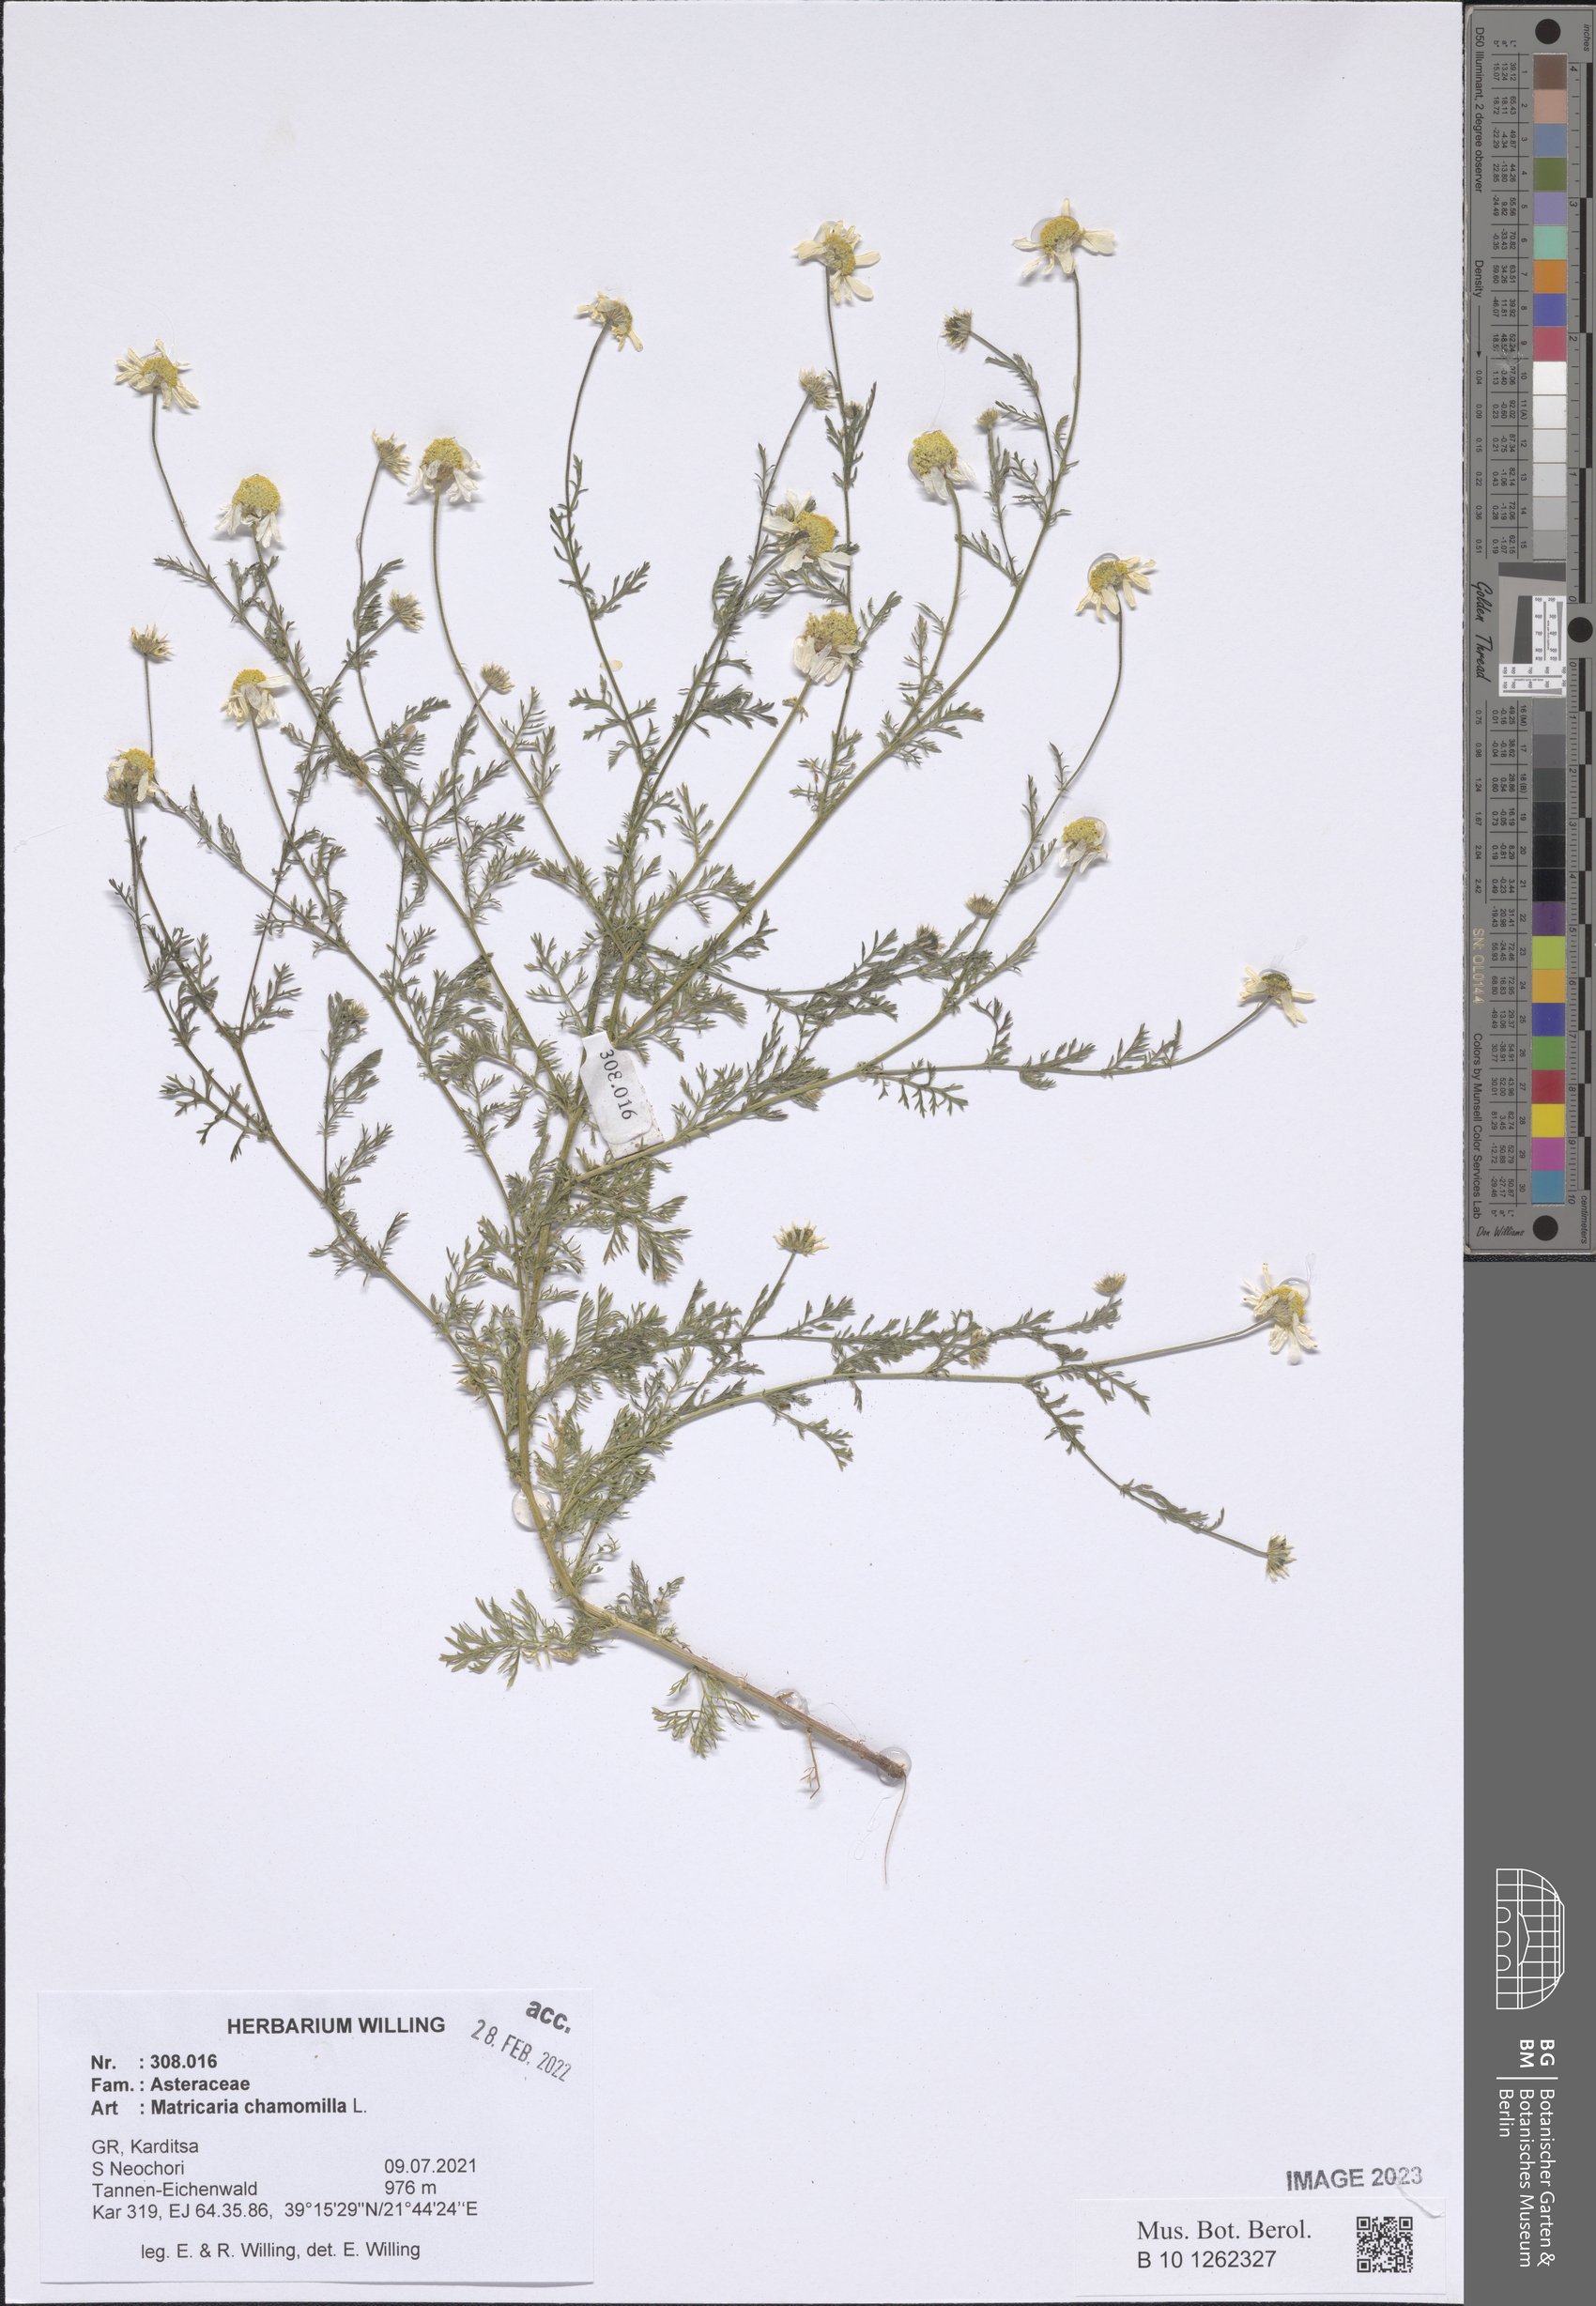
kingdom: Plantae
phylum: Tracheophyta
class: Magnoliopsida
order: Asterales
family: Asteraceae
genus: Matricaria
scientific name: Matricaria chamomilla
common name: Scented mayweed
